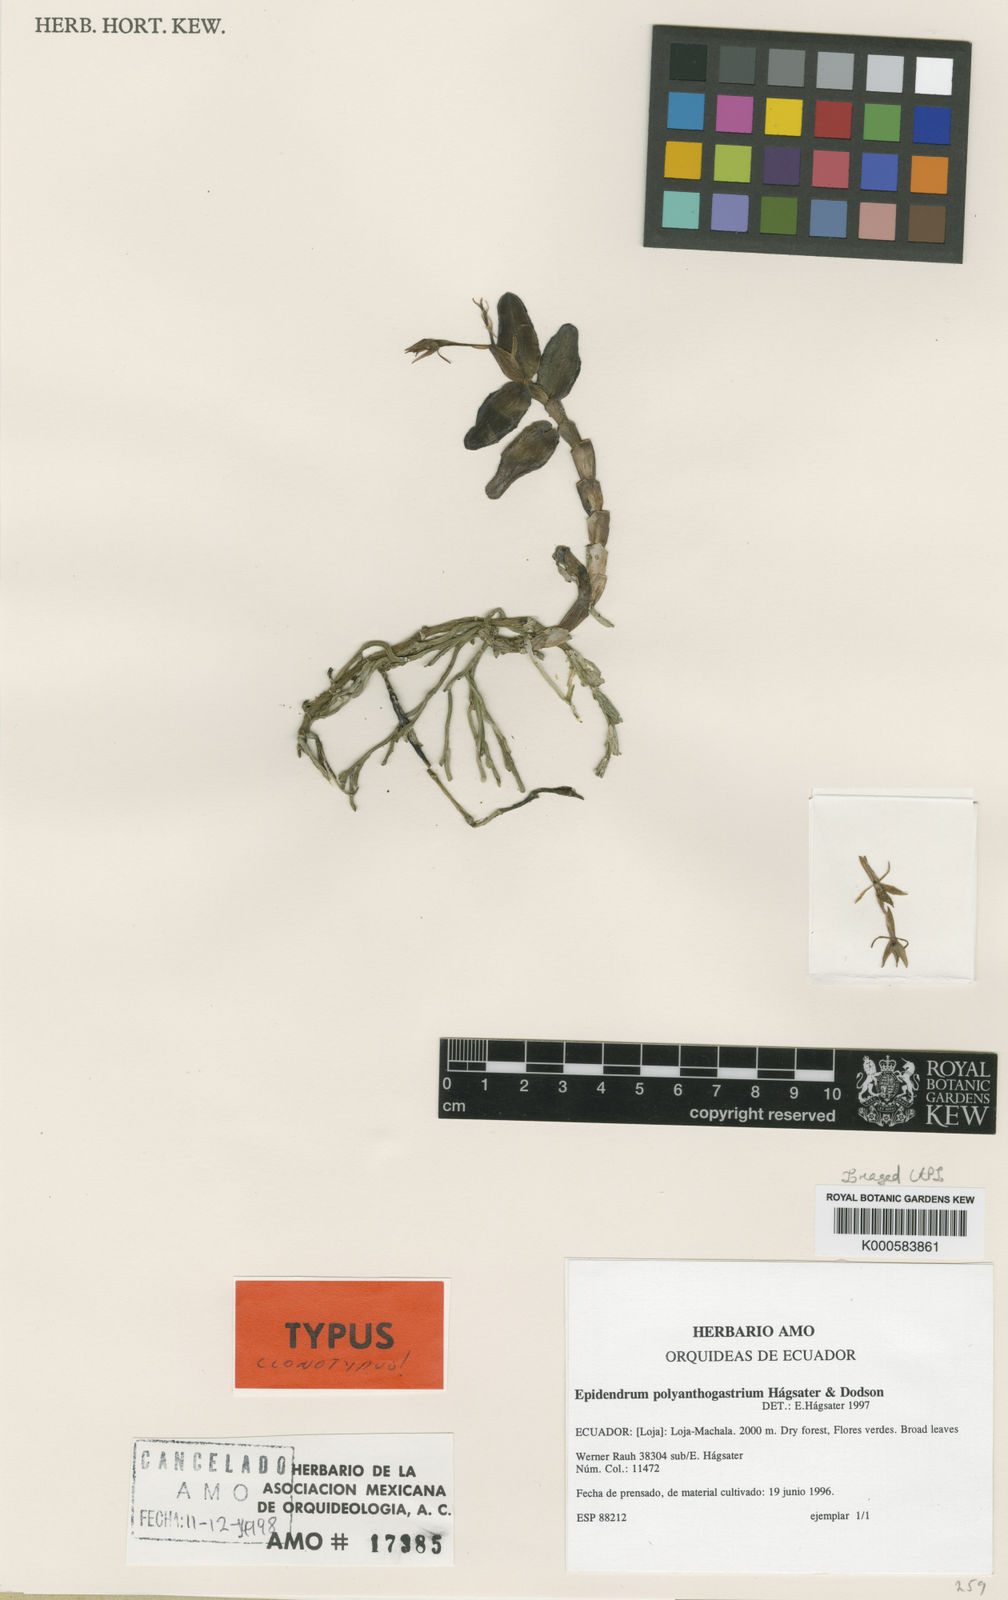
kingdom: Plantae
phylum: Tracheophyta
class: Liliopsida
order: Asparagales
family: Orchidaceae
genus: Epidendrum
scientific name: Epidendrum
